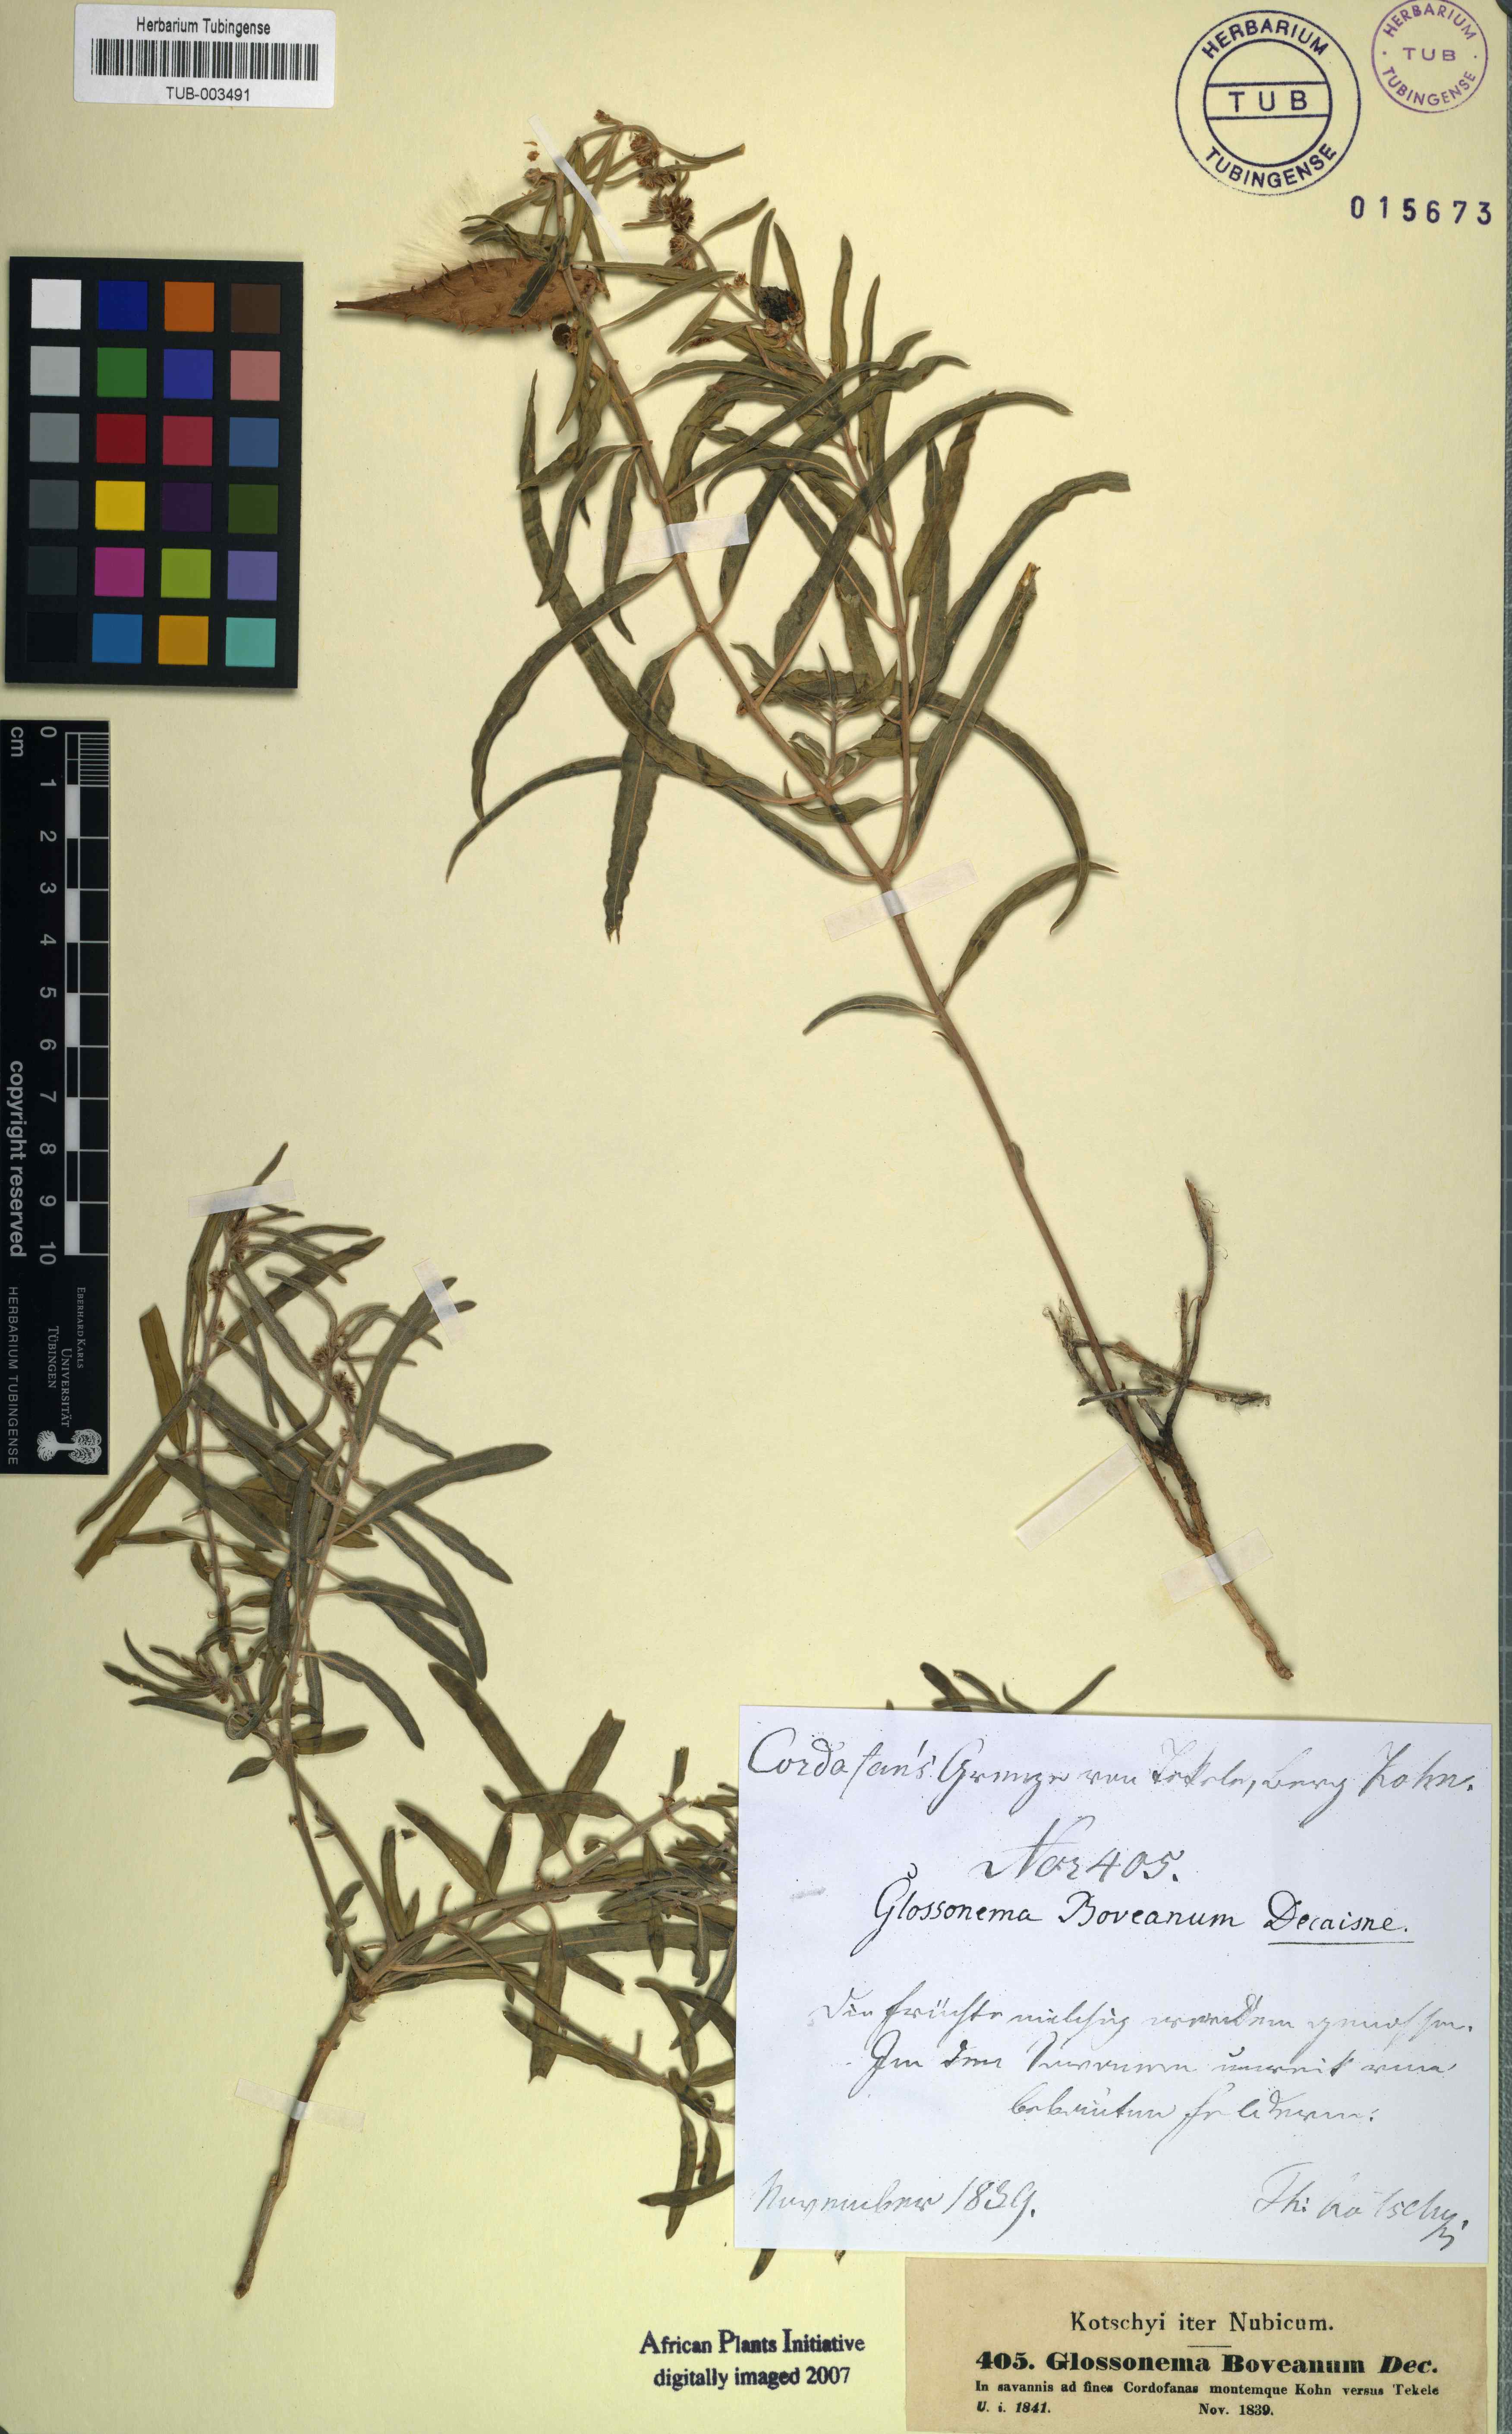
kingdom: Plantae
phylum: Tracheophyta
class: Magnoliopsida
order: Gentianales
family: Apocynaceae
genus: Cynanchum
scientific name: Cynanchum boveanum
